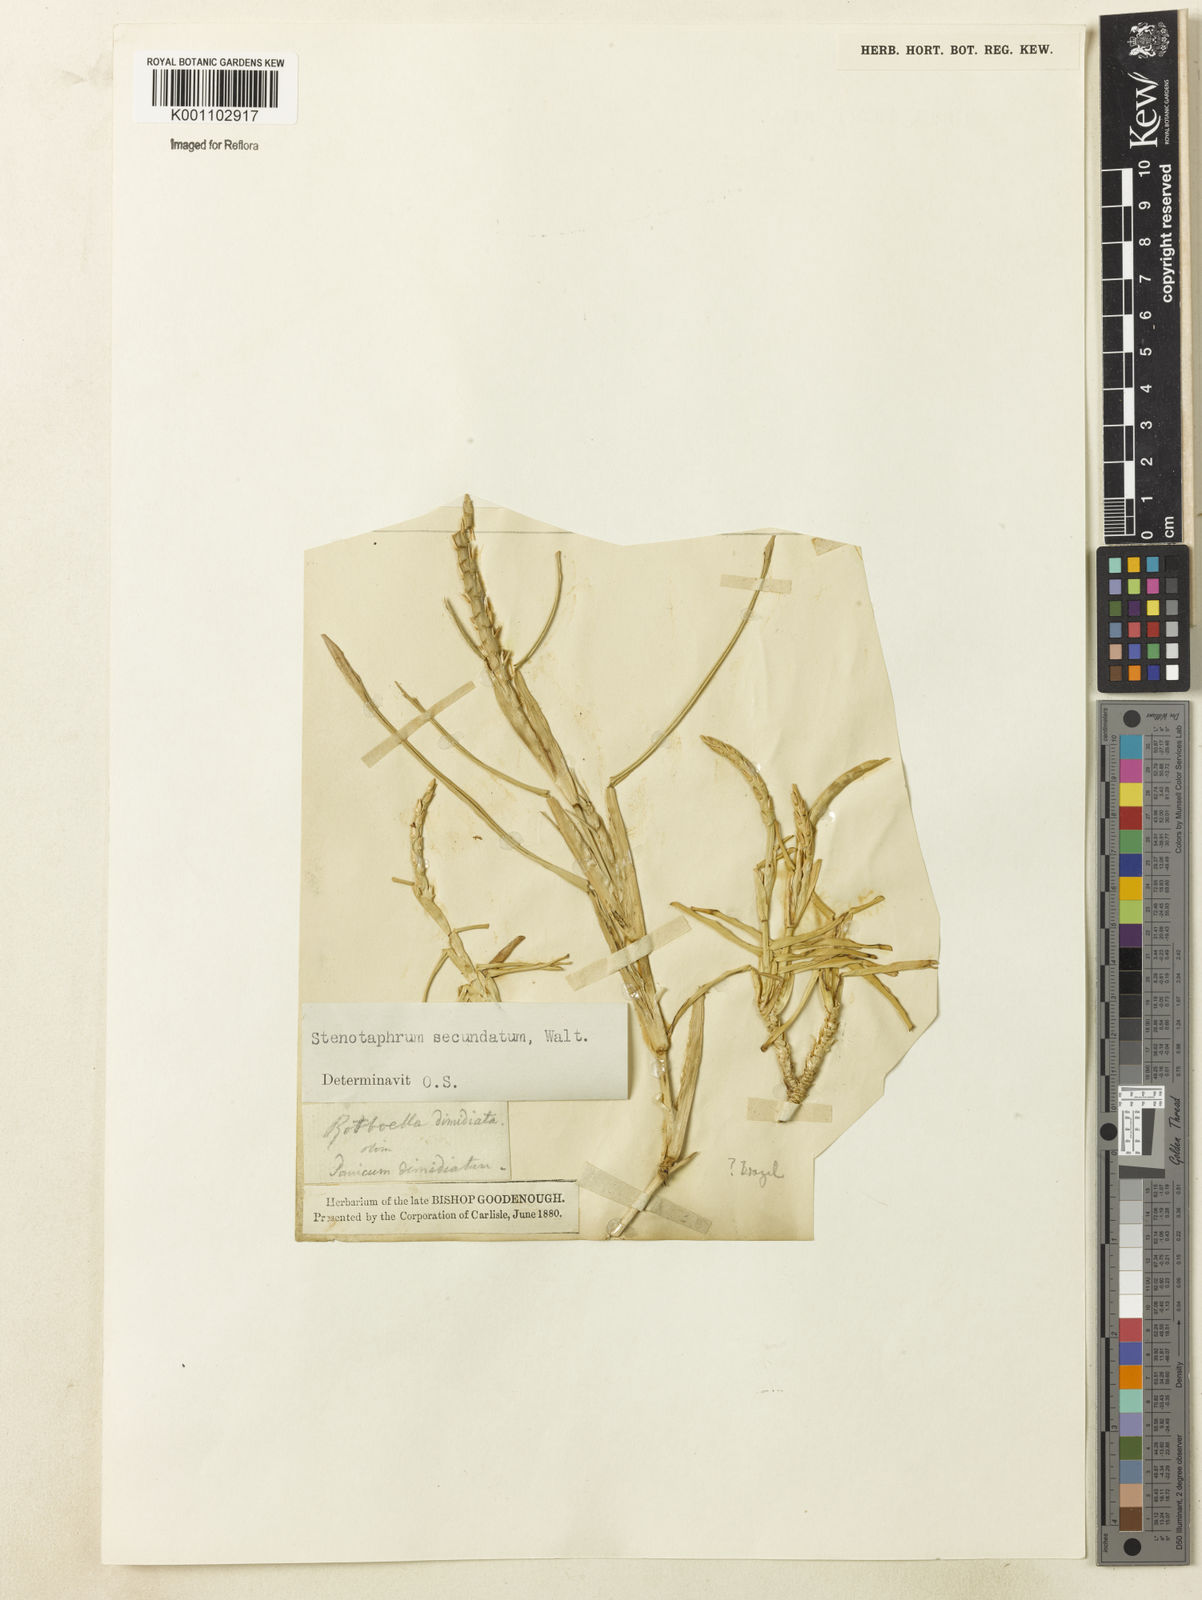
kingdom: Plantae
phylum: Tracheophyta
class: Liliopsida
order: Poales
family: Poaceae
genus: Stenotaphrum
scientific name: Stenotaphrum secundatum
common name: St. augustine grass
